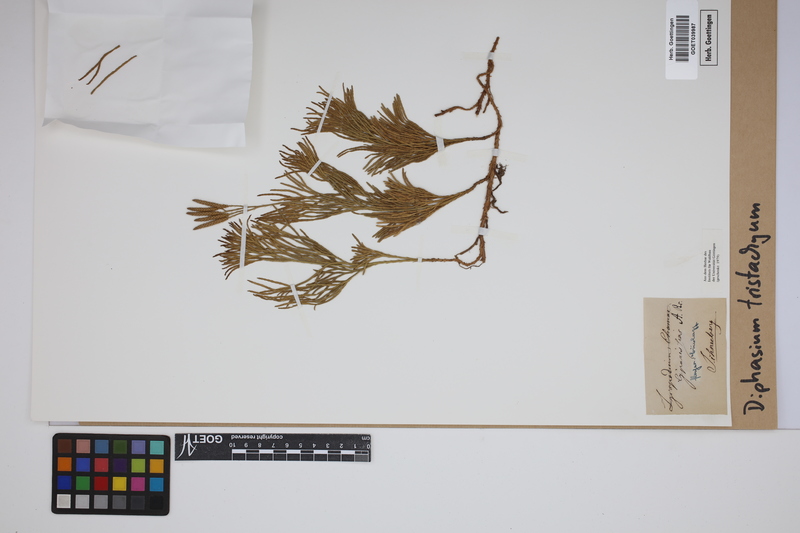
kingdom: Plantae
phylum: Tracheophyta
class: Lycopodiopsida
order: Lycopodiales
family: Lycopodiaceae
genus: Diphasiastrum
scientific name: Diphasiastrum tristachyum
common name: Blue ground-cedar
